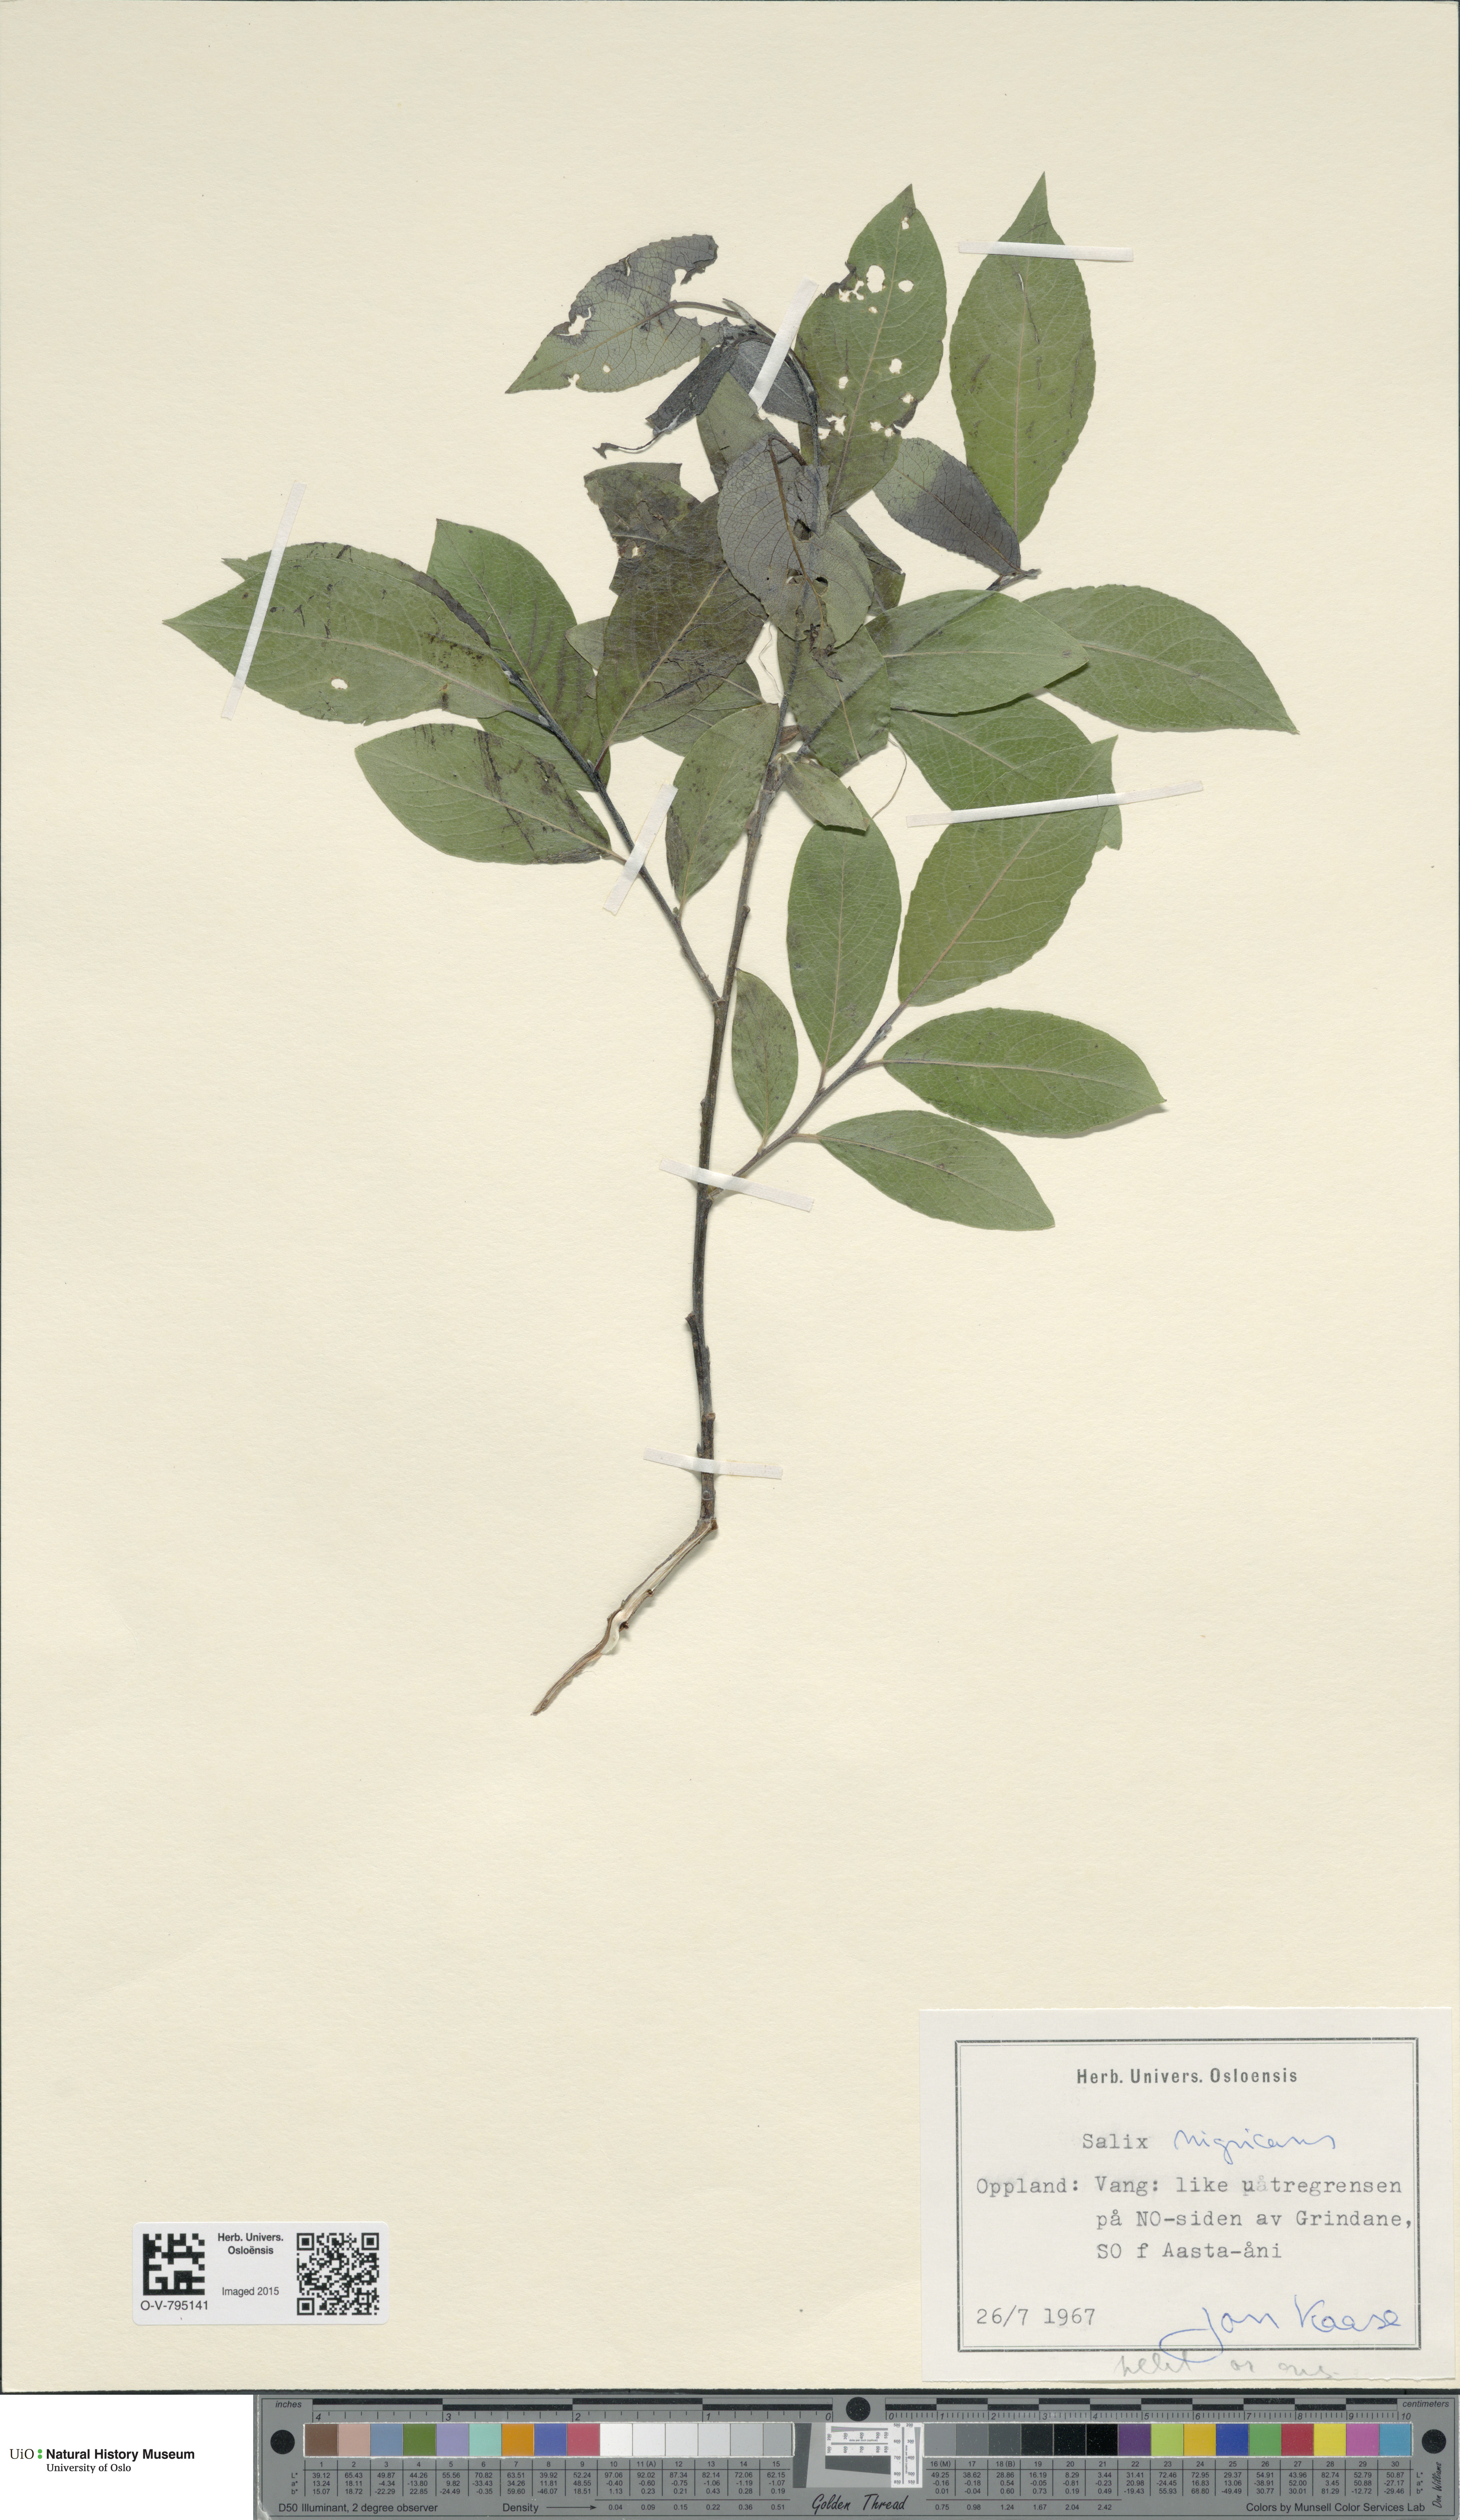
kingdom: Plantae
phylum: Tracheophyta
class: Magnoliopsida
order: Malpighiales
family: Salicaceae
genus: Salix
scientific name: Salix myrsinifolia
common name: Dark-leaved willow
